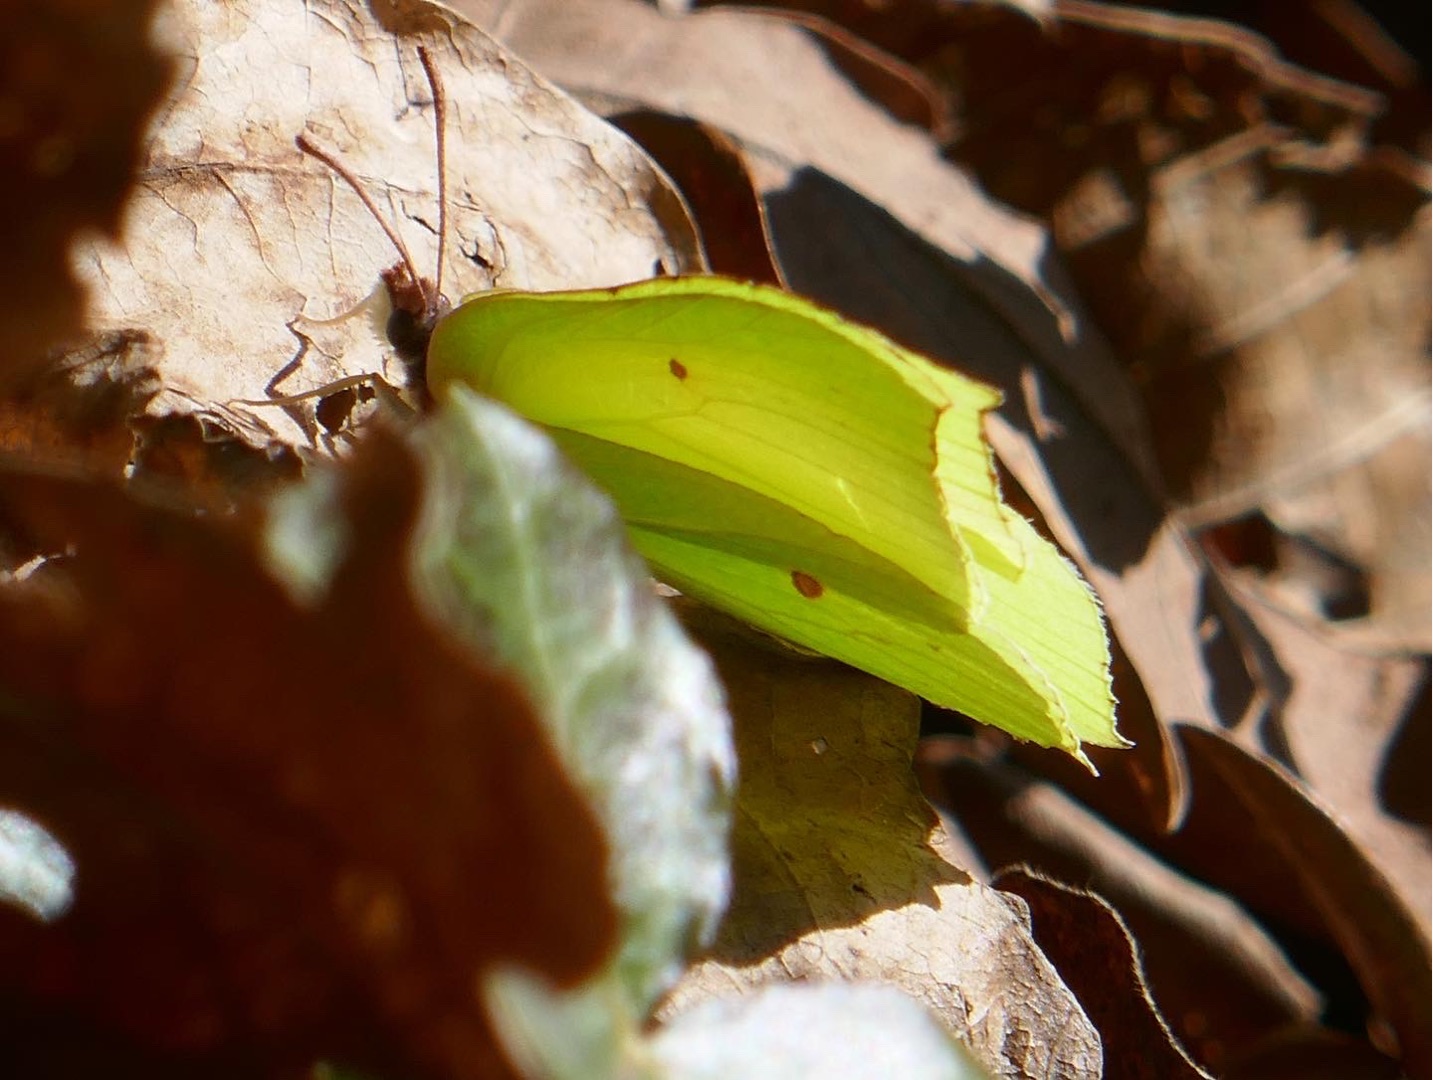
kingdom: Animalia
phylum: Arthropoda
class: Insecta
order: Lepidoptera
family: Pieridae
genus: Gonepteryx
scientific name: Gonepteryx rhamni
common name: Citronsommerfugl
